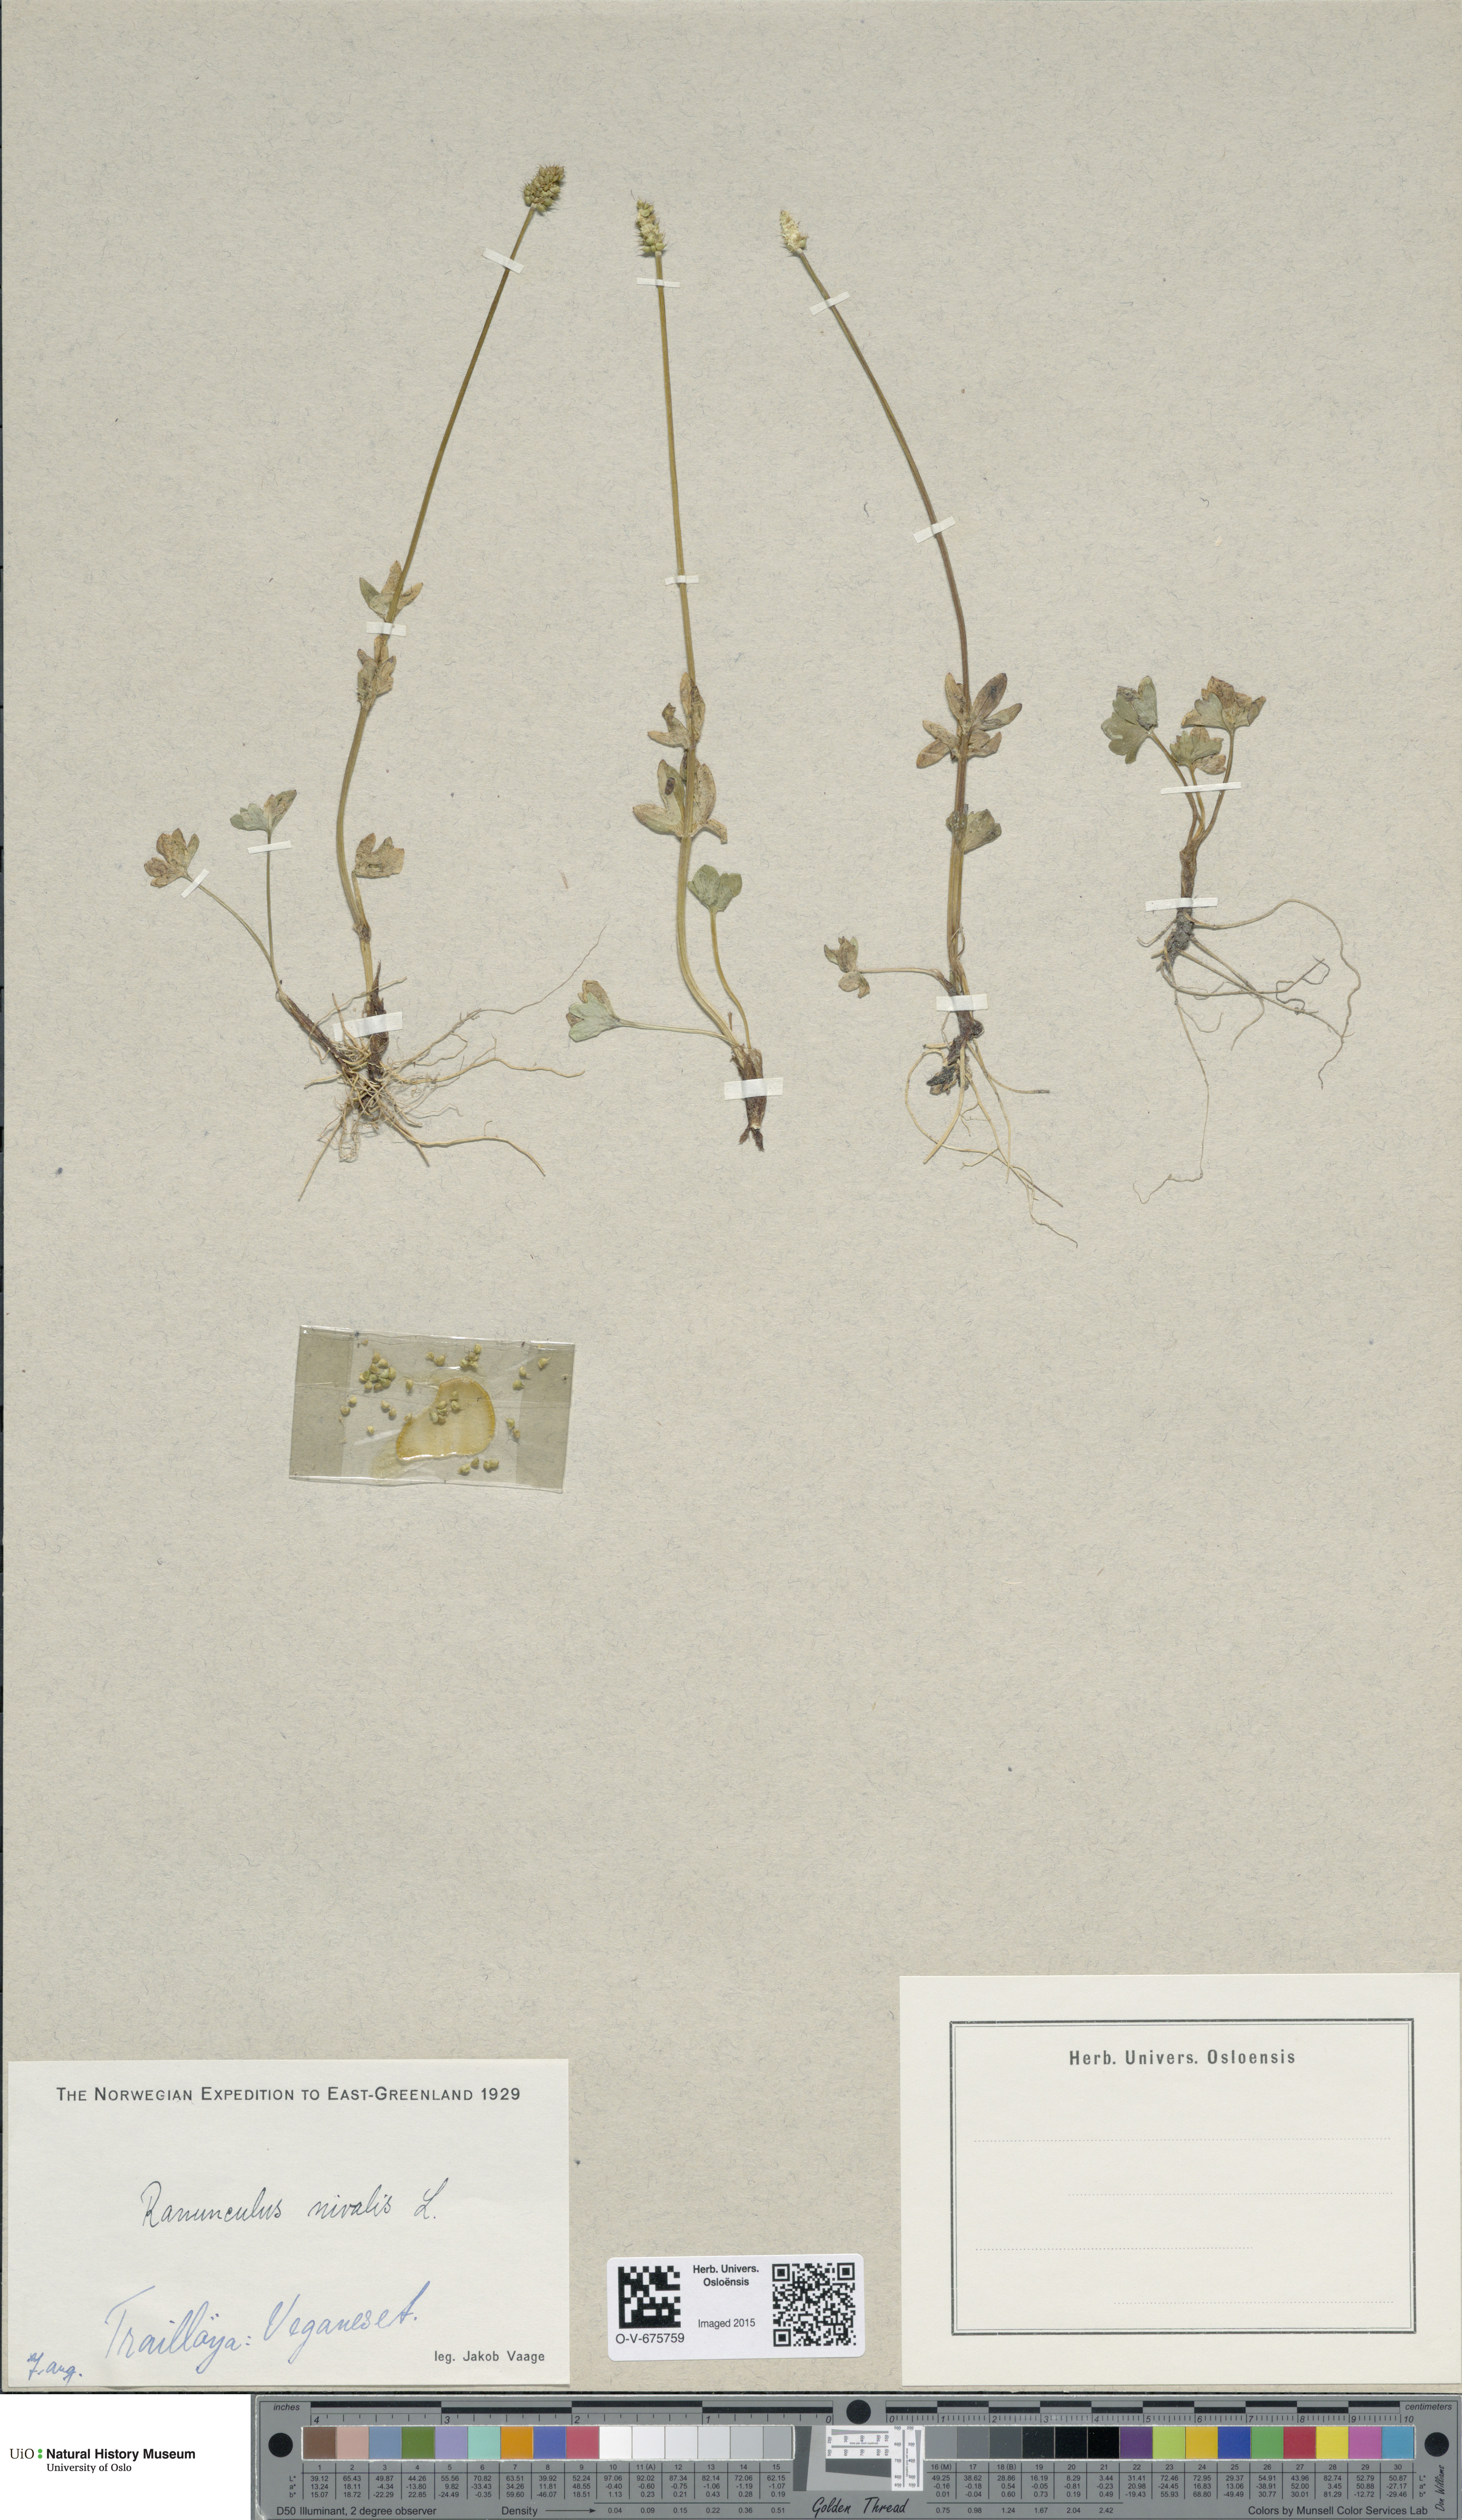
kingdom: Plantae
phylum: Tracheophyta
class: Magnoliopsida
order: Ranunculales
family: Ranunculaceae
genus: Ranunculus
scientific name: Ranunculus nivalis
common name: Snow buttercup
